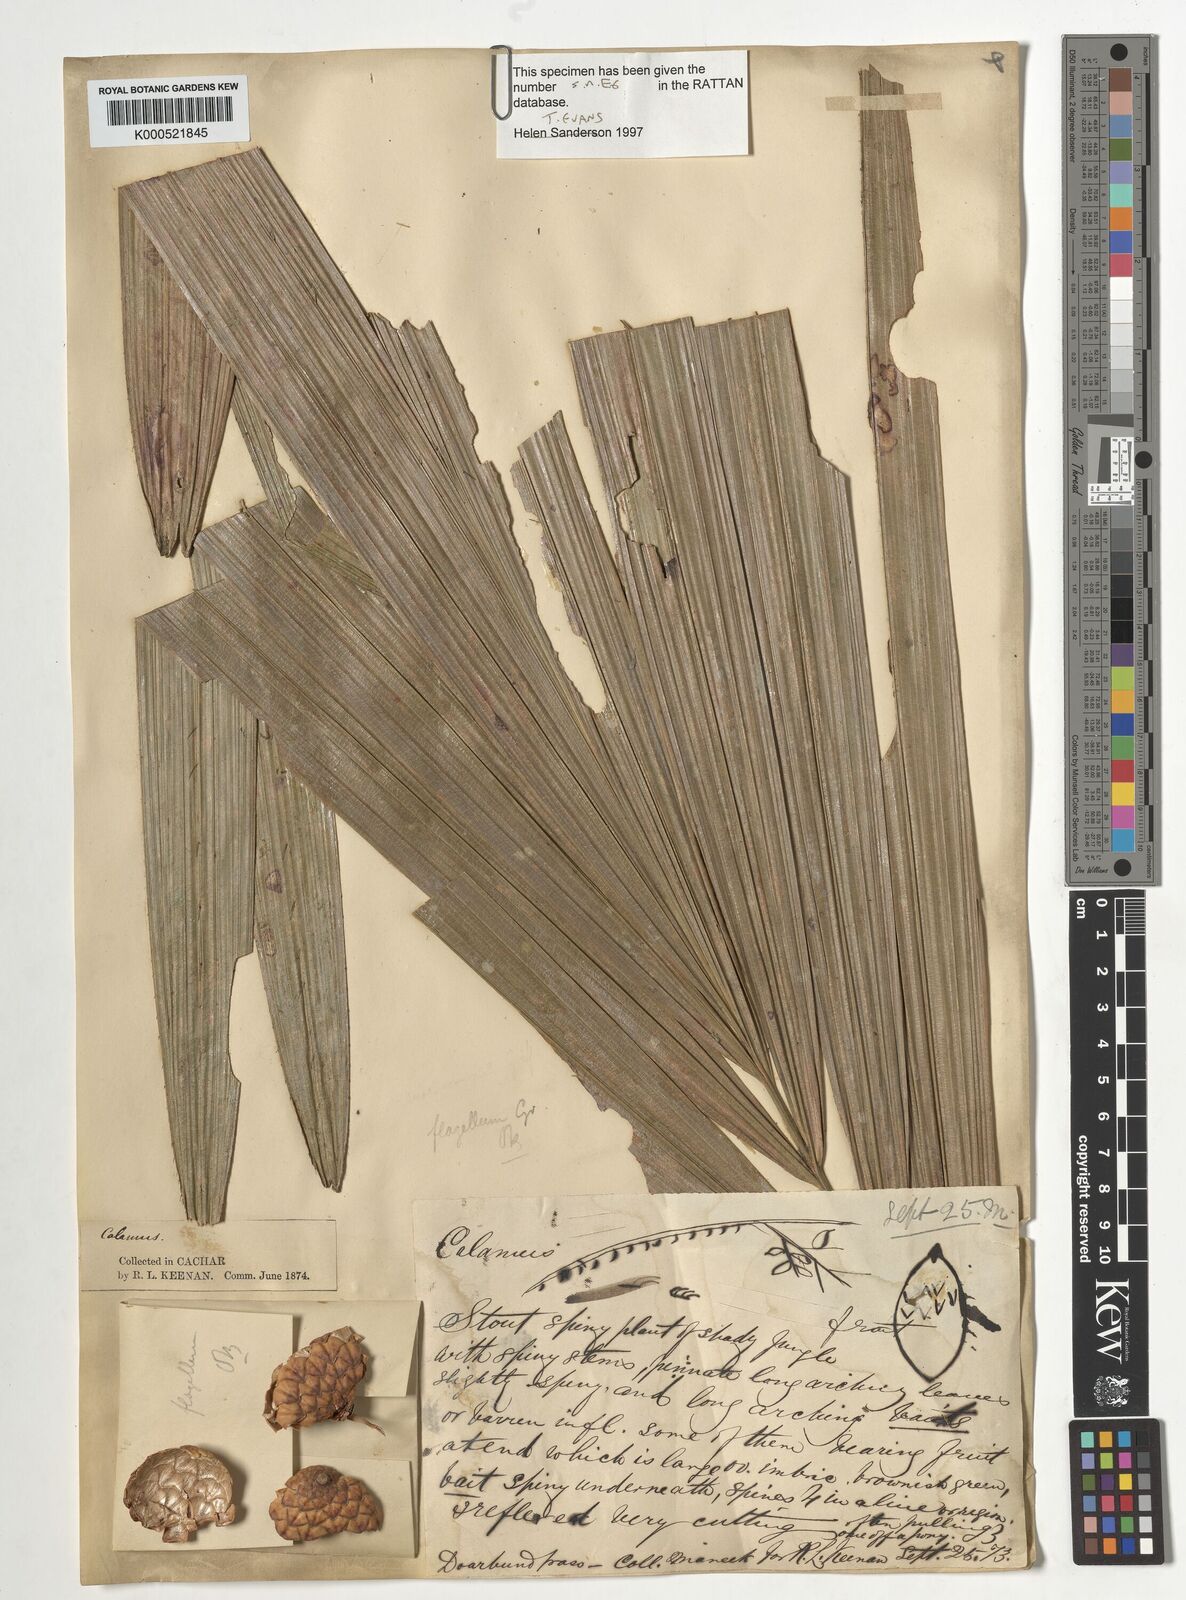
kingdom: Plantae
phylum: Tracheophyta
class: Liliopsida
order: Arecales
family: Arecaceae
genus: Calamus
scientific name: Calamus
